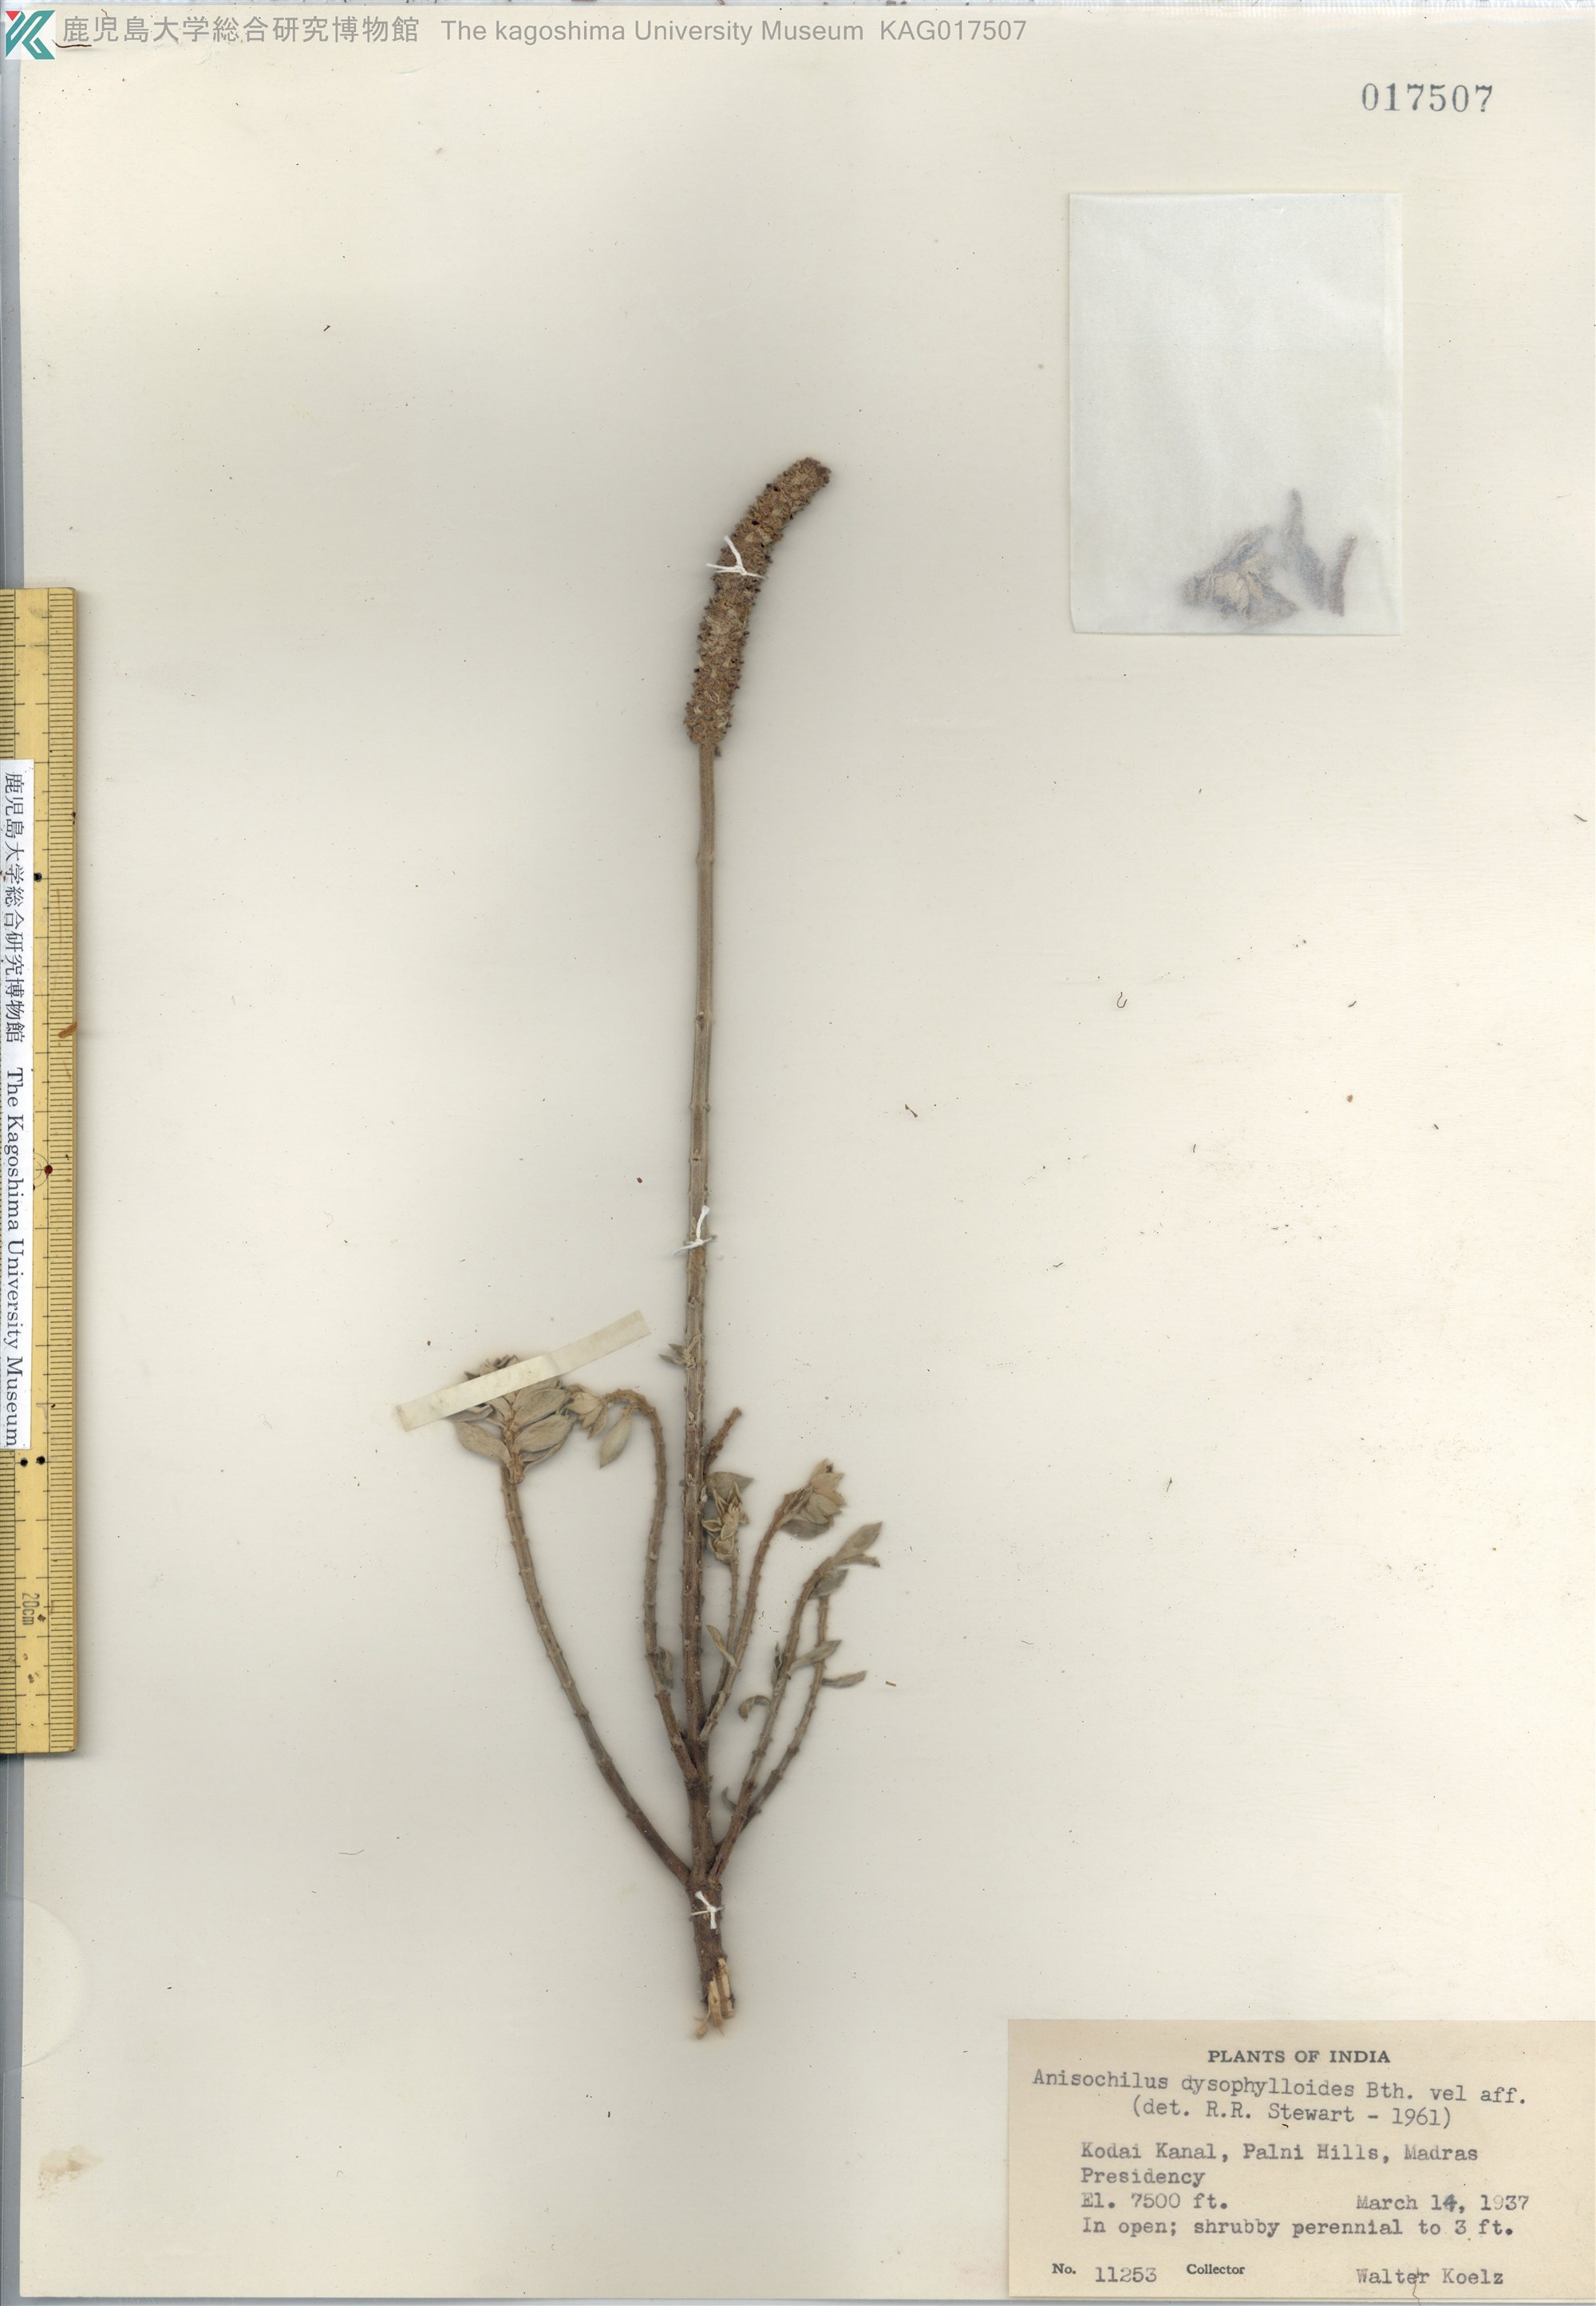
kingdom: Plantae
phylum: Tracheophyta
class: Magnoliopsida
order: Lamiales
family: Lamiaceae
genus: Coleus
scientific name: Coleus dysophylloides
